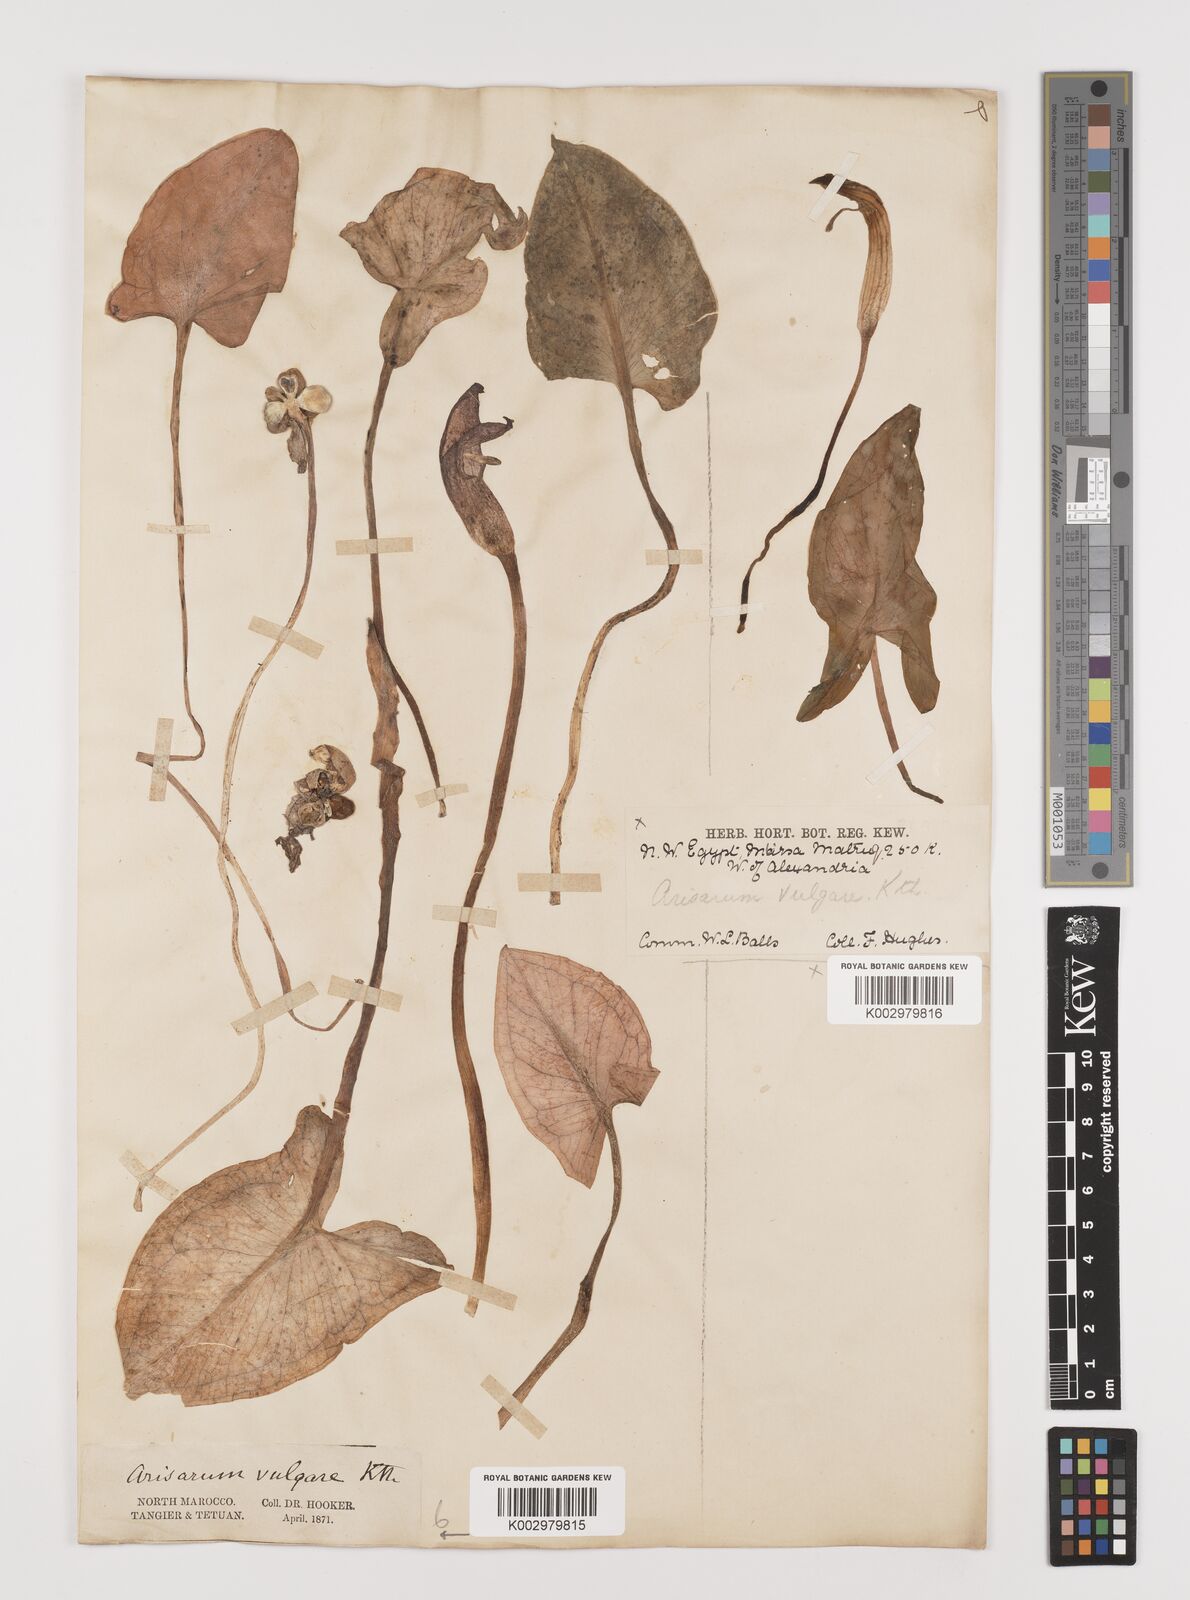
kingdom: Plantae
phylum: Tracheophyta
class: Liliopsida
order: Alismatales
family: Araceae
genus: Arisarum
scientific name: Arisarum vulgare
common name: Common arisarum
